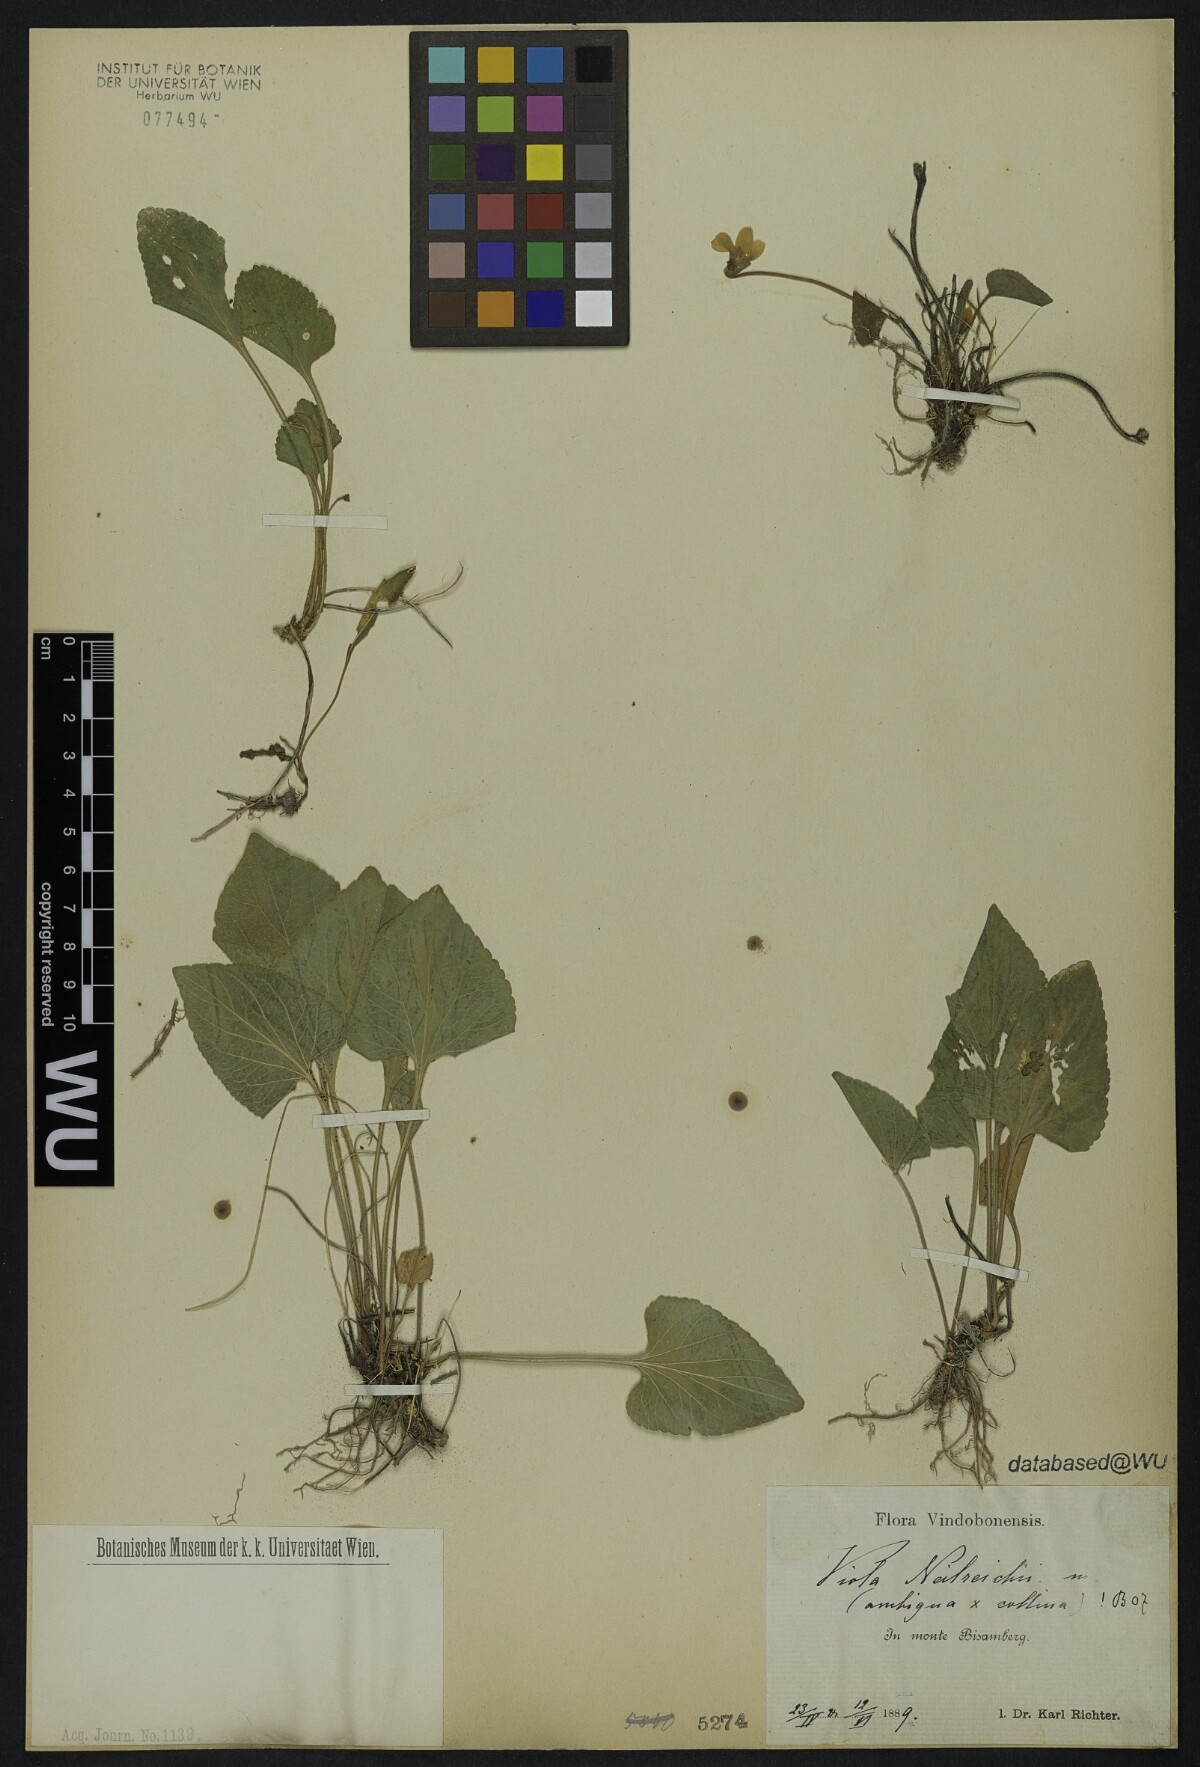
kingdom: Plantae
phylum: Tracheophyta
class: Magnoliopsida
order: Malpighiales
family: Violaceae
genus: Viola
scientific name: Viola neilreichii
